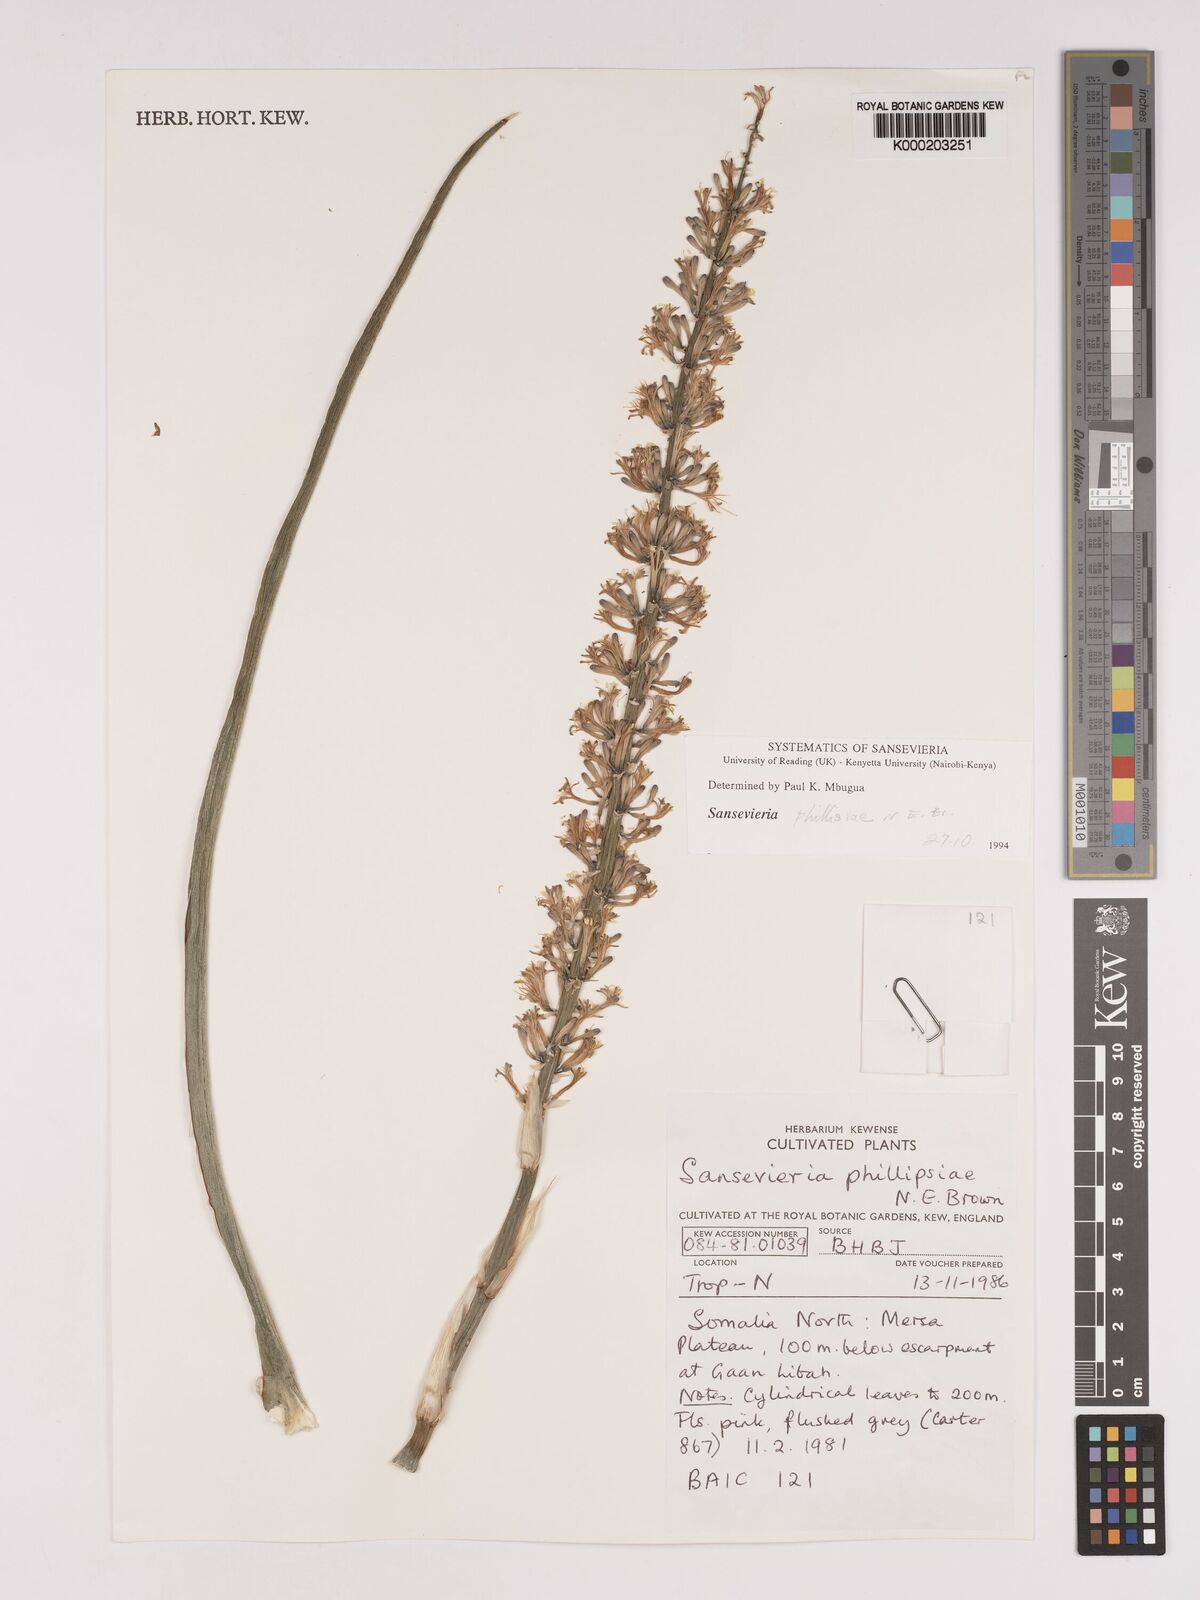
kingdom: Plantae
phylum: Tracheophyta
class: Liliopsida
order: Asparagales
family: Asparagaceae
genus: Dracaena
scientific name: Dracaena phillipsiae
